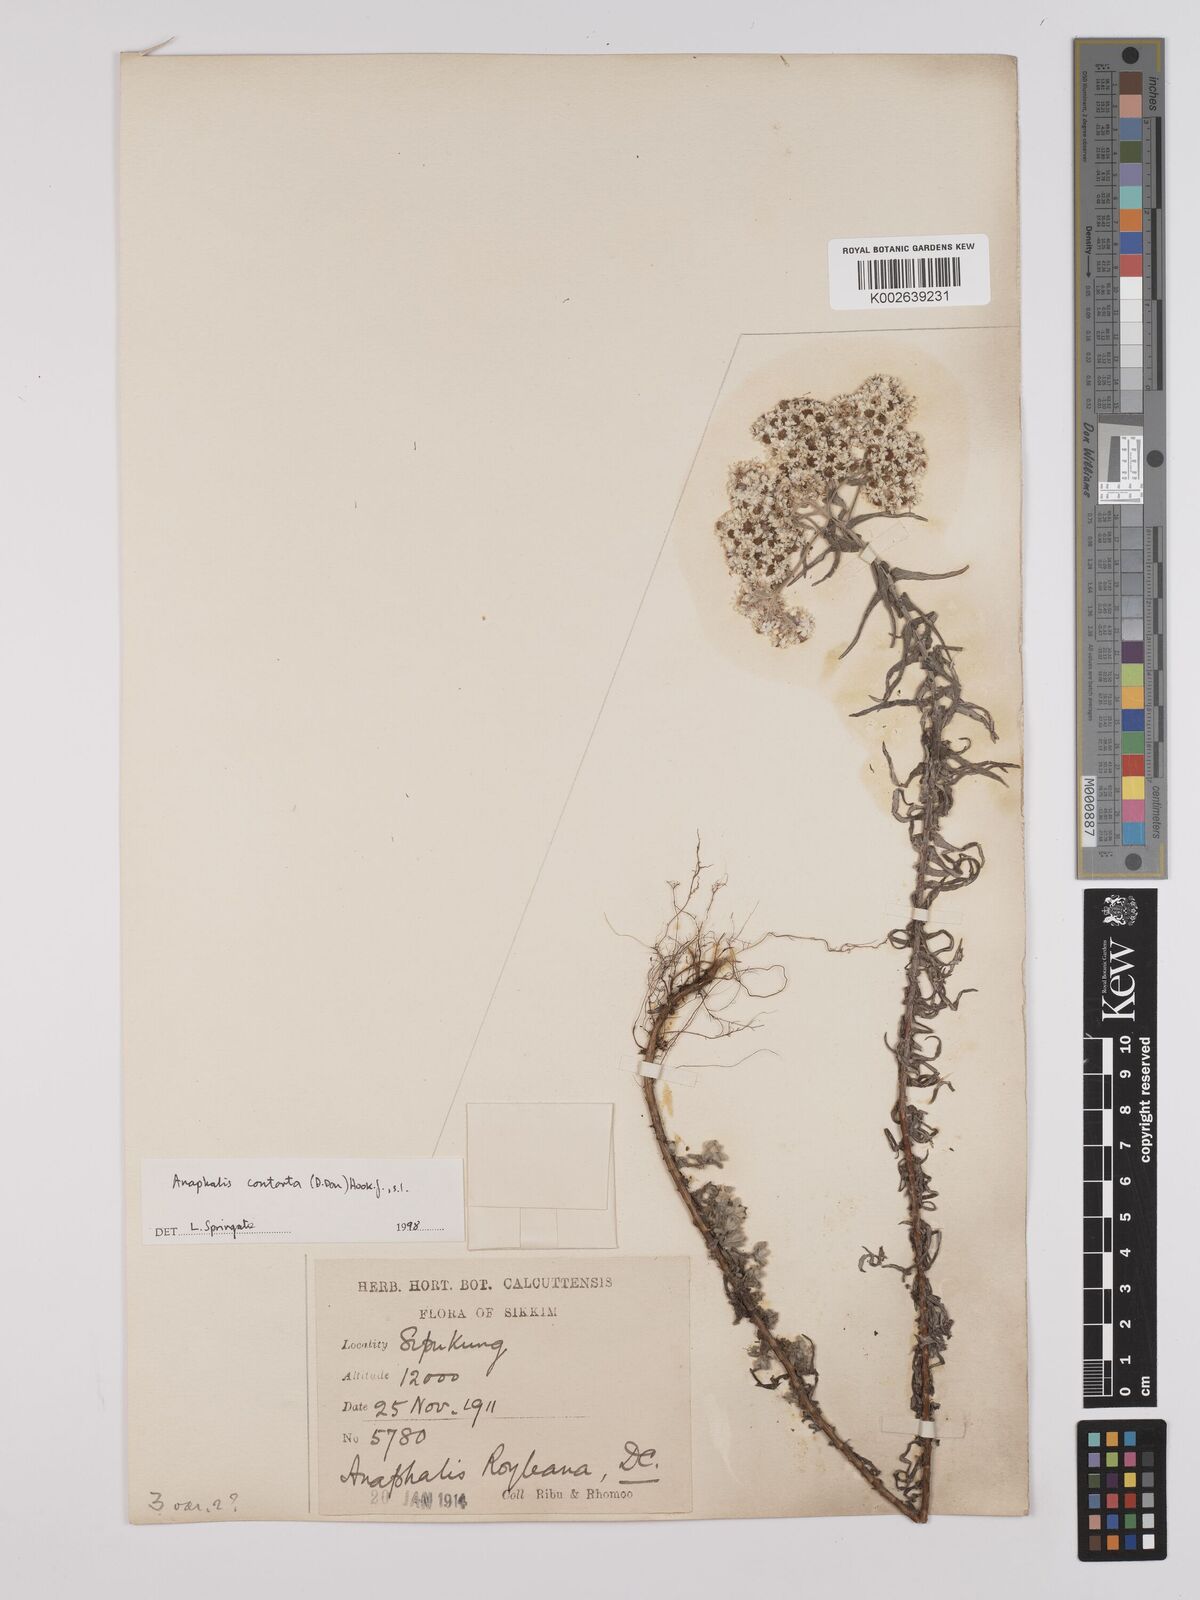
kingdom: Plantae
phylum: Tracheophyta
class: Magnoliopsida
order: Asterales
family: Asteraceae
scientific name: Asteraceae
